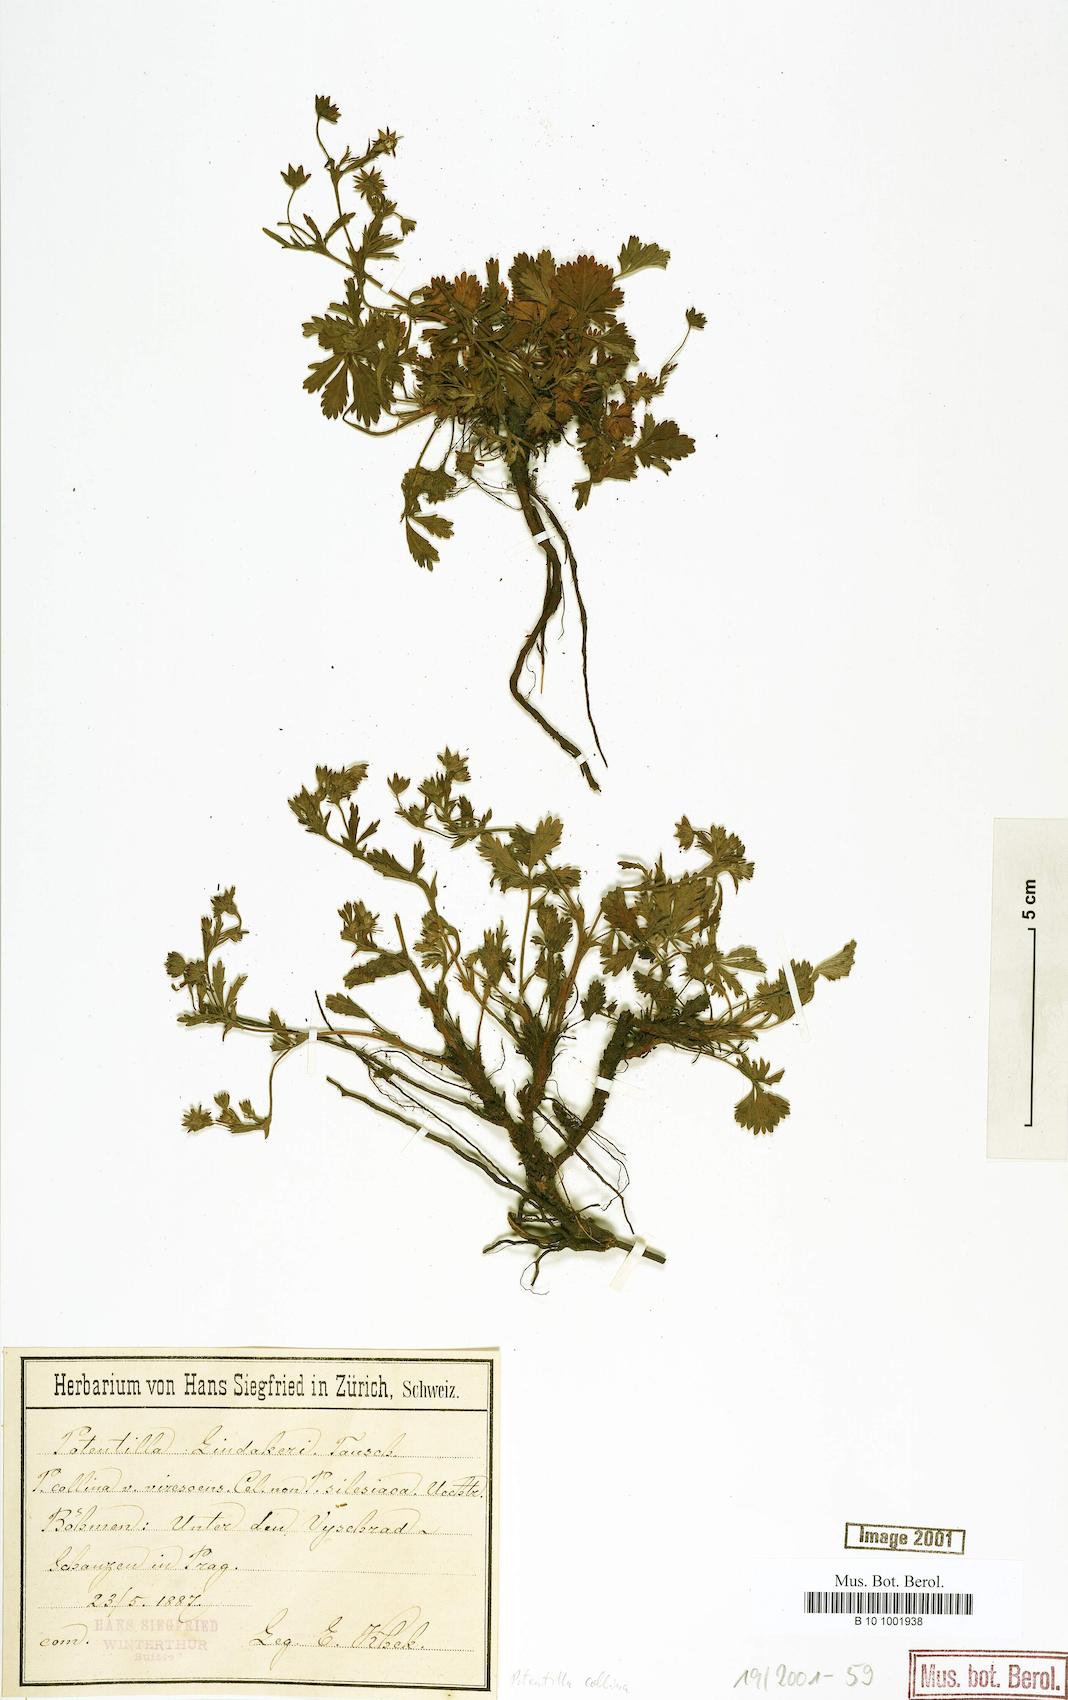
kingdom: Plantae
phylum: Tracheophyta
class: Magnoliopsida
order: Rosales
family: Rosaceae
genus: Potentilla
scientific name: Potentilla collina
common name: Palmleaf cinquefoil
